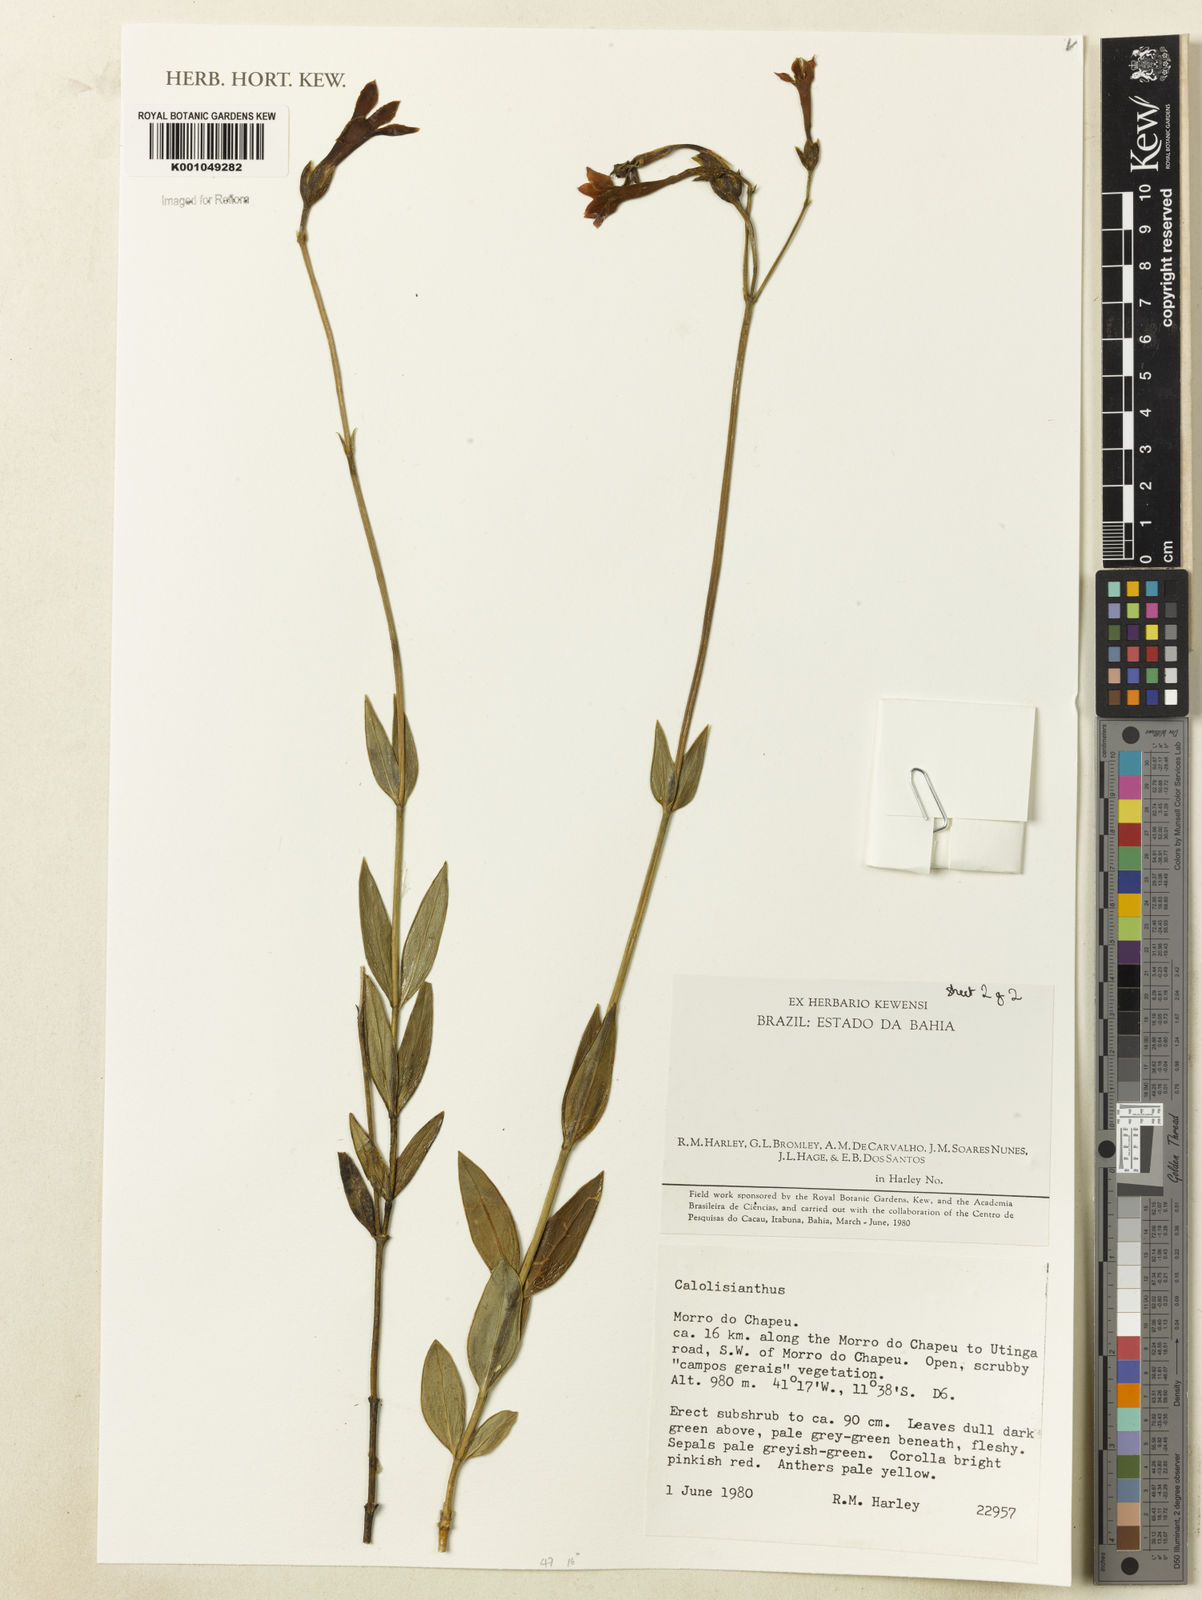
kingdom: Plantae
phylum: Tracheophyta
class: Magnoliopsida
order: Gentianales
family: Gentianaceae
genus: Calolisianthus
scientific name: Calolisianthus
